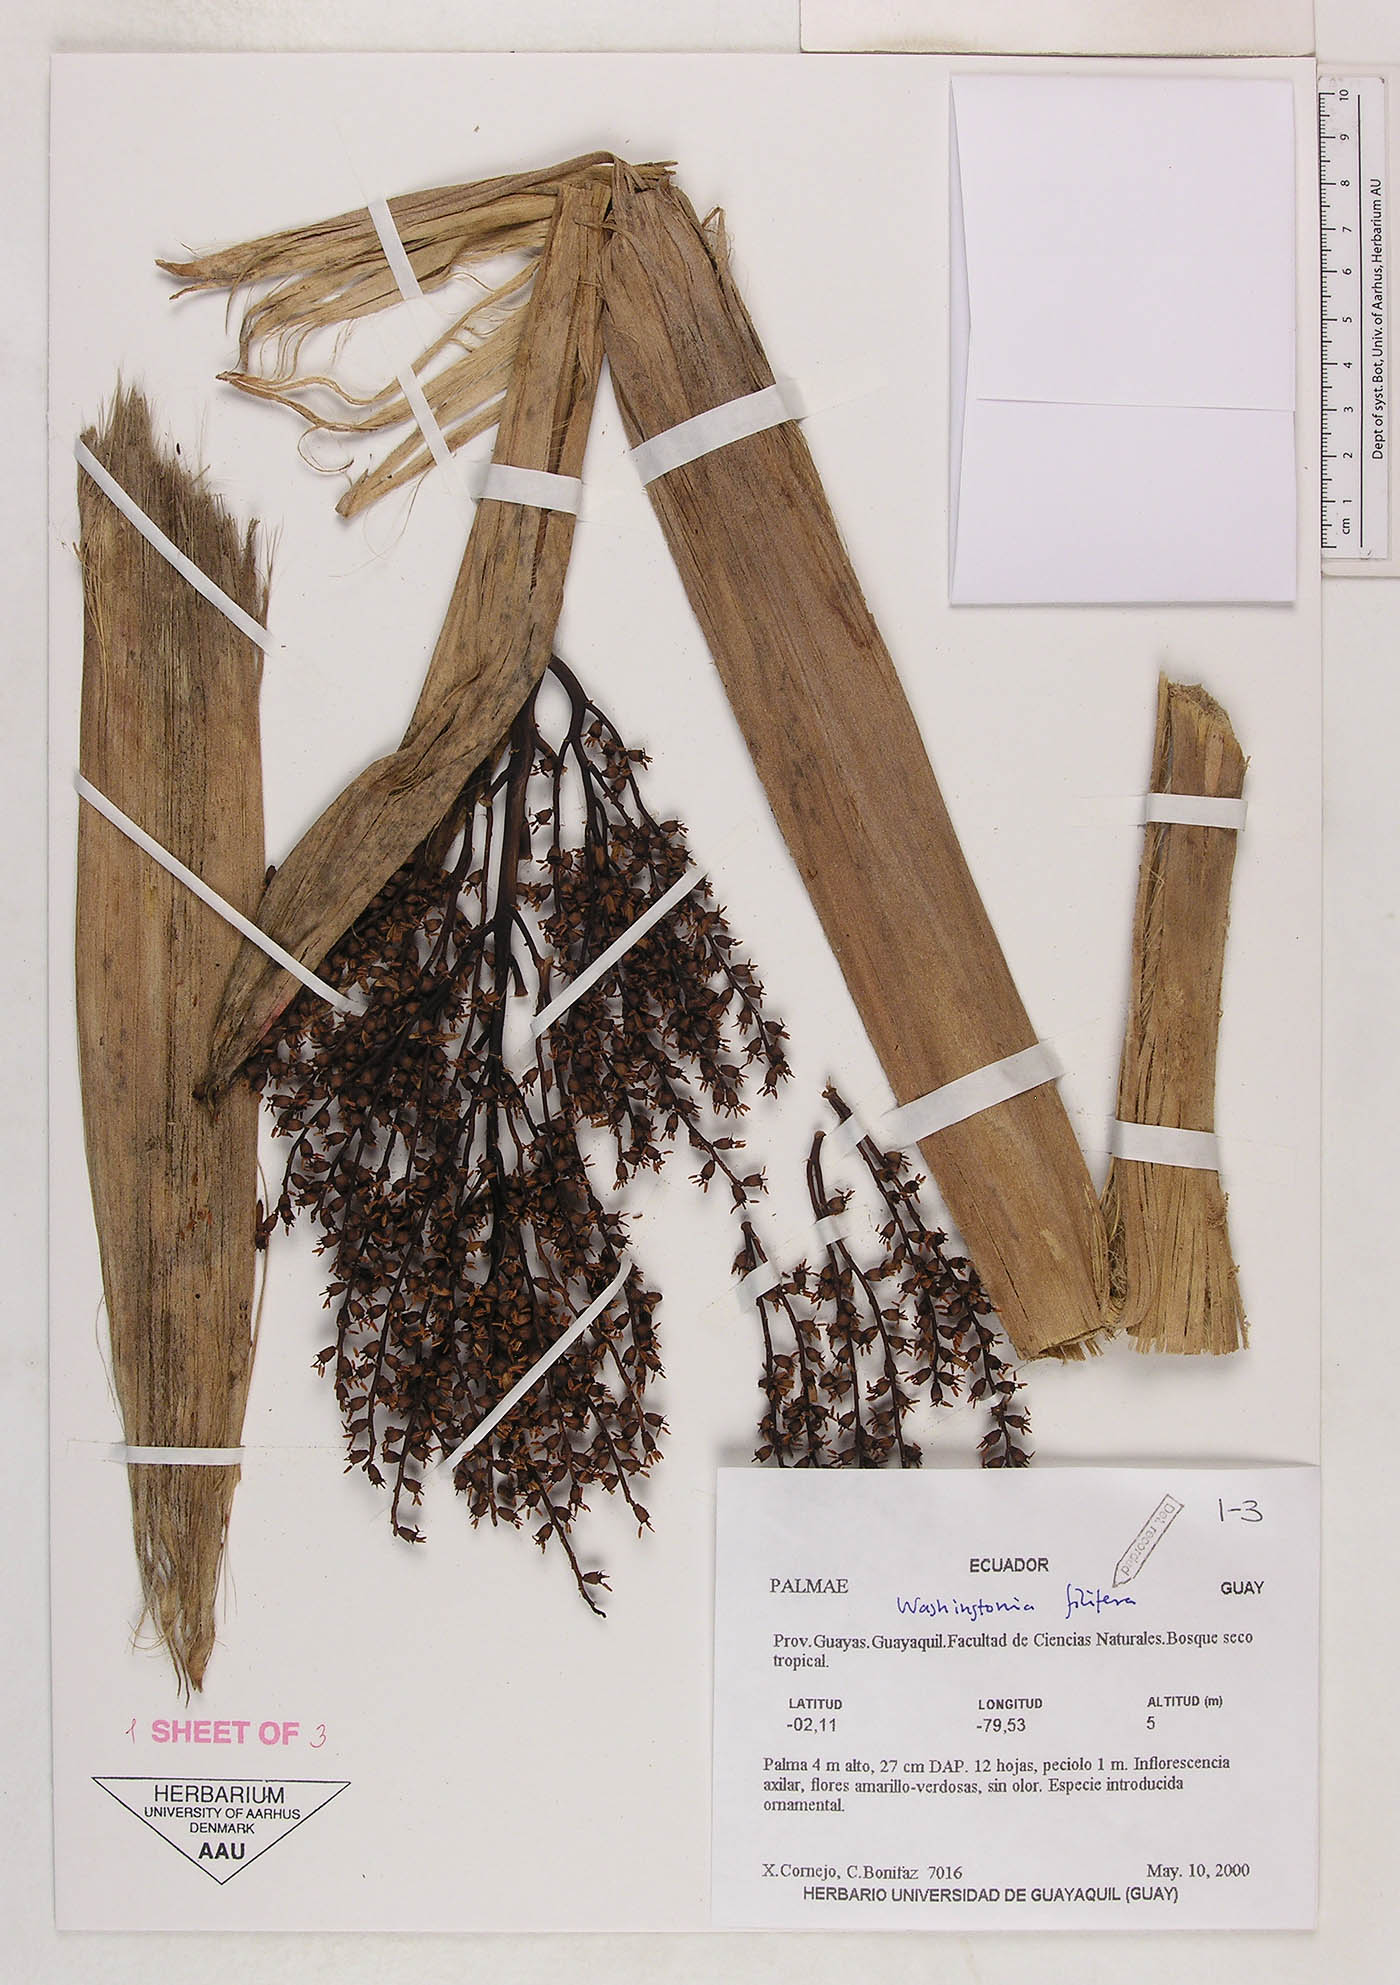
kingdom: Plantae
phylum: Tracheophyta
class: Liliopsida
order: Arecales
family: Arecaceae
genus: Washingtonia
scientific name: Washingtonia filifera
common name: California fan palm
